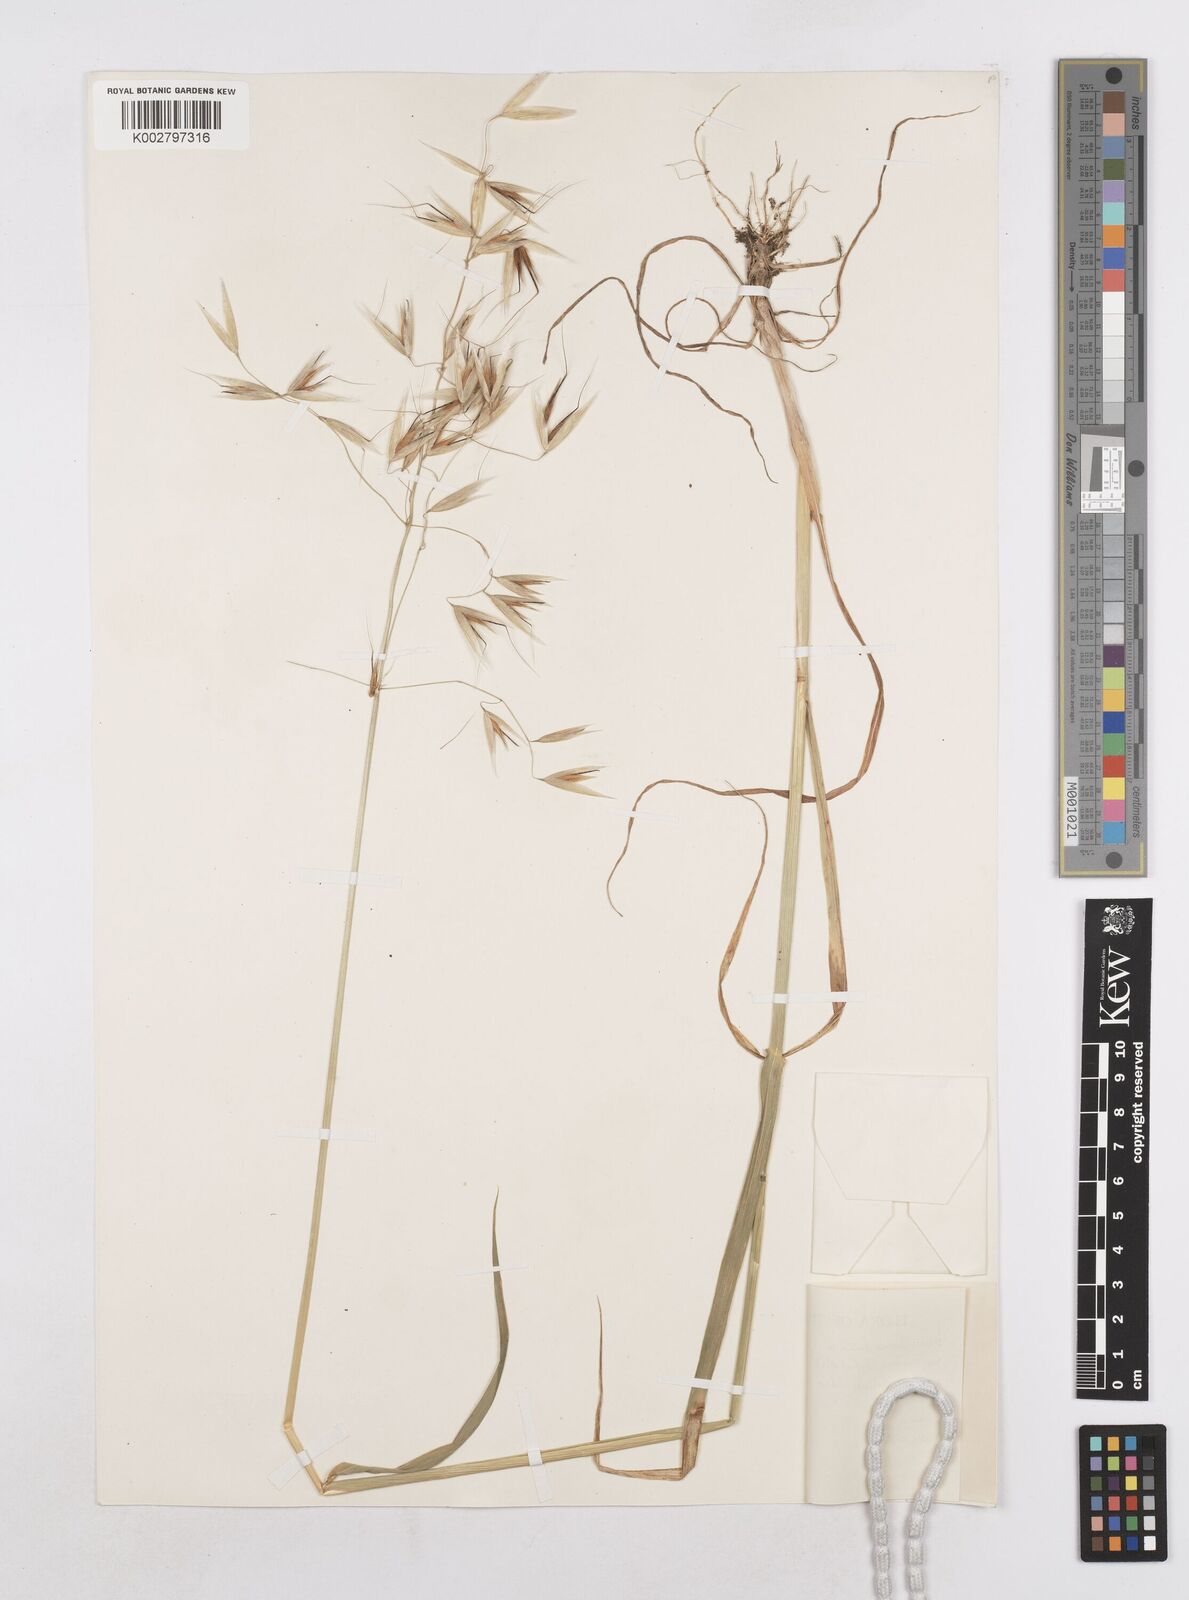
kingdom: Plantae
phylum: Tracheophyta
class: Liliopsida
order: Poales
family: Poaceae
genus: Avena
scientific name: Avena fatua
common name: Wild oat
